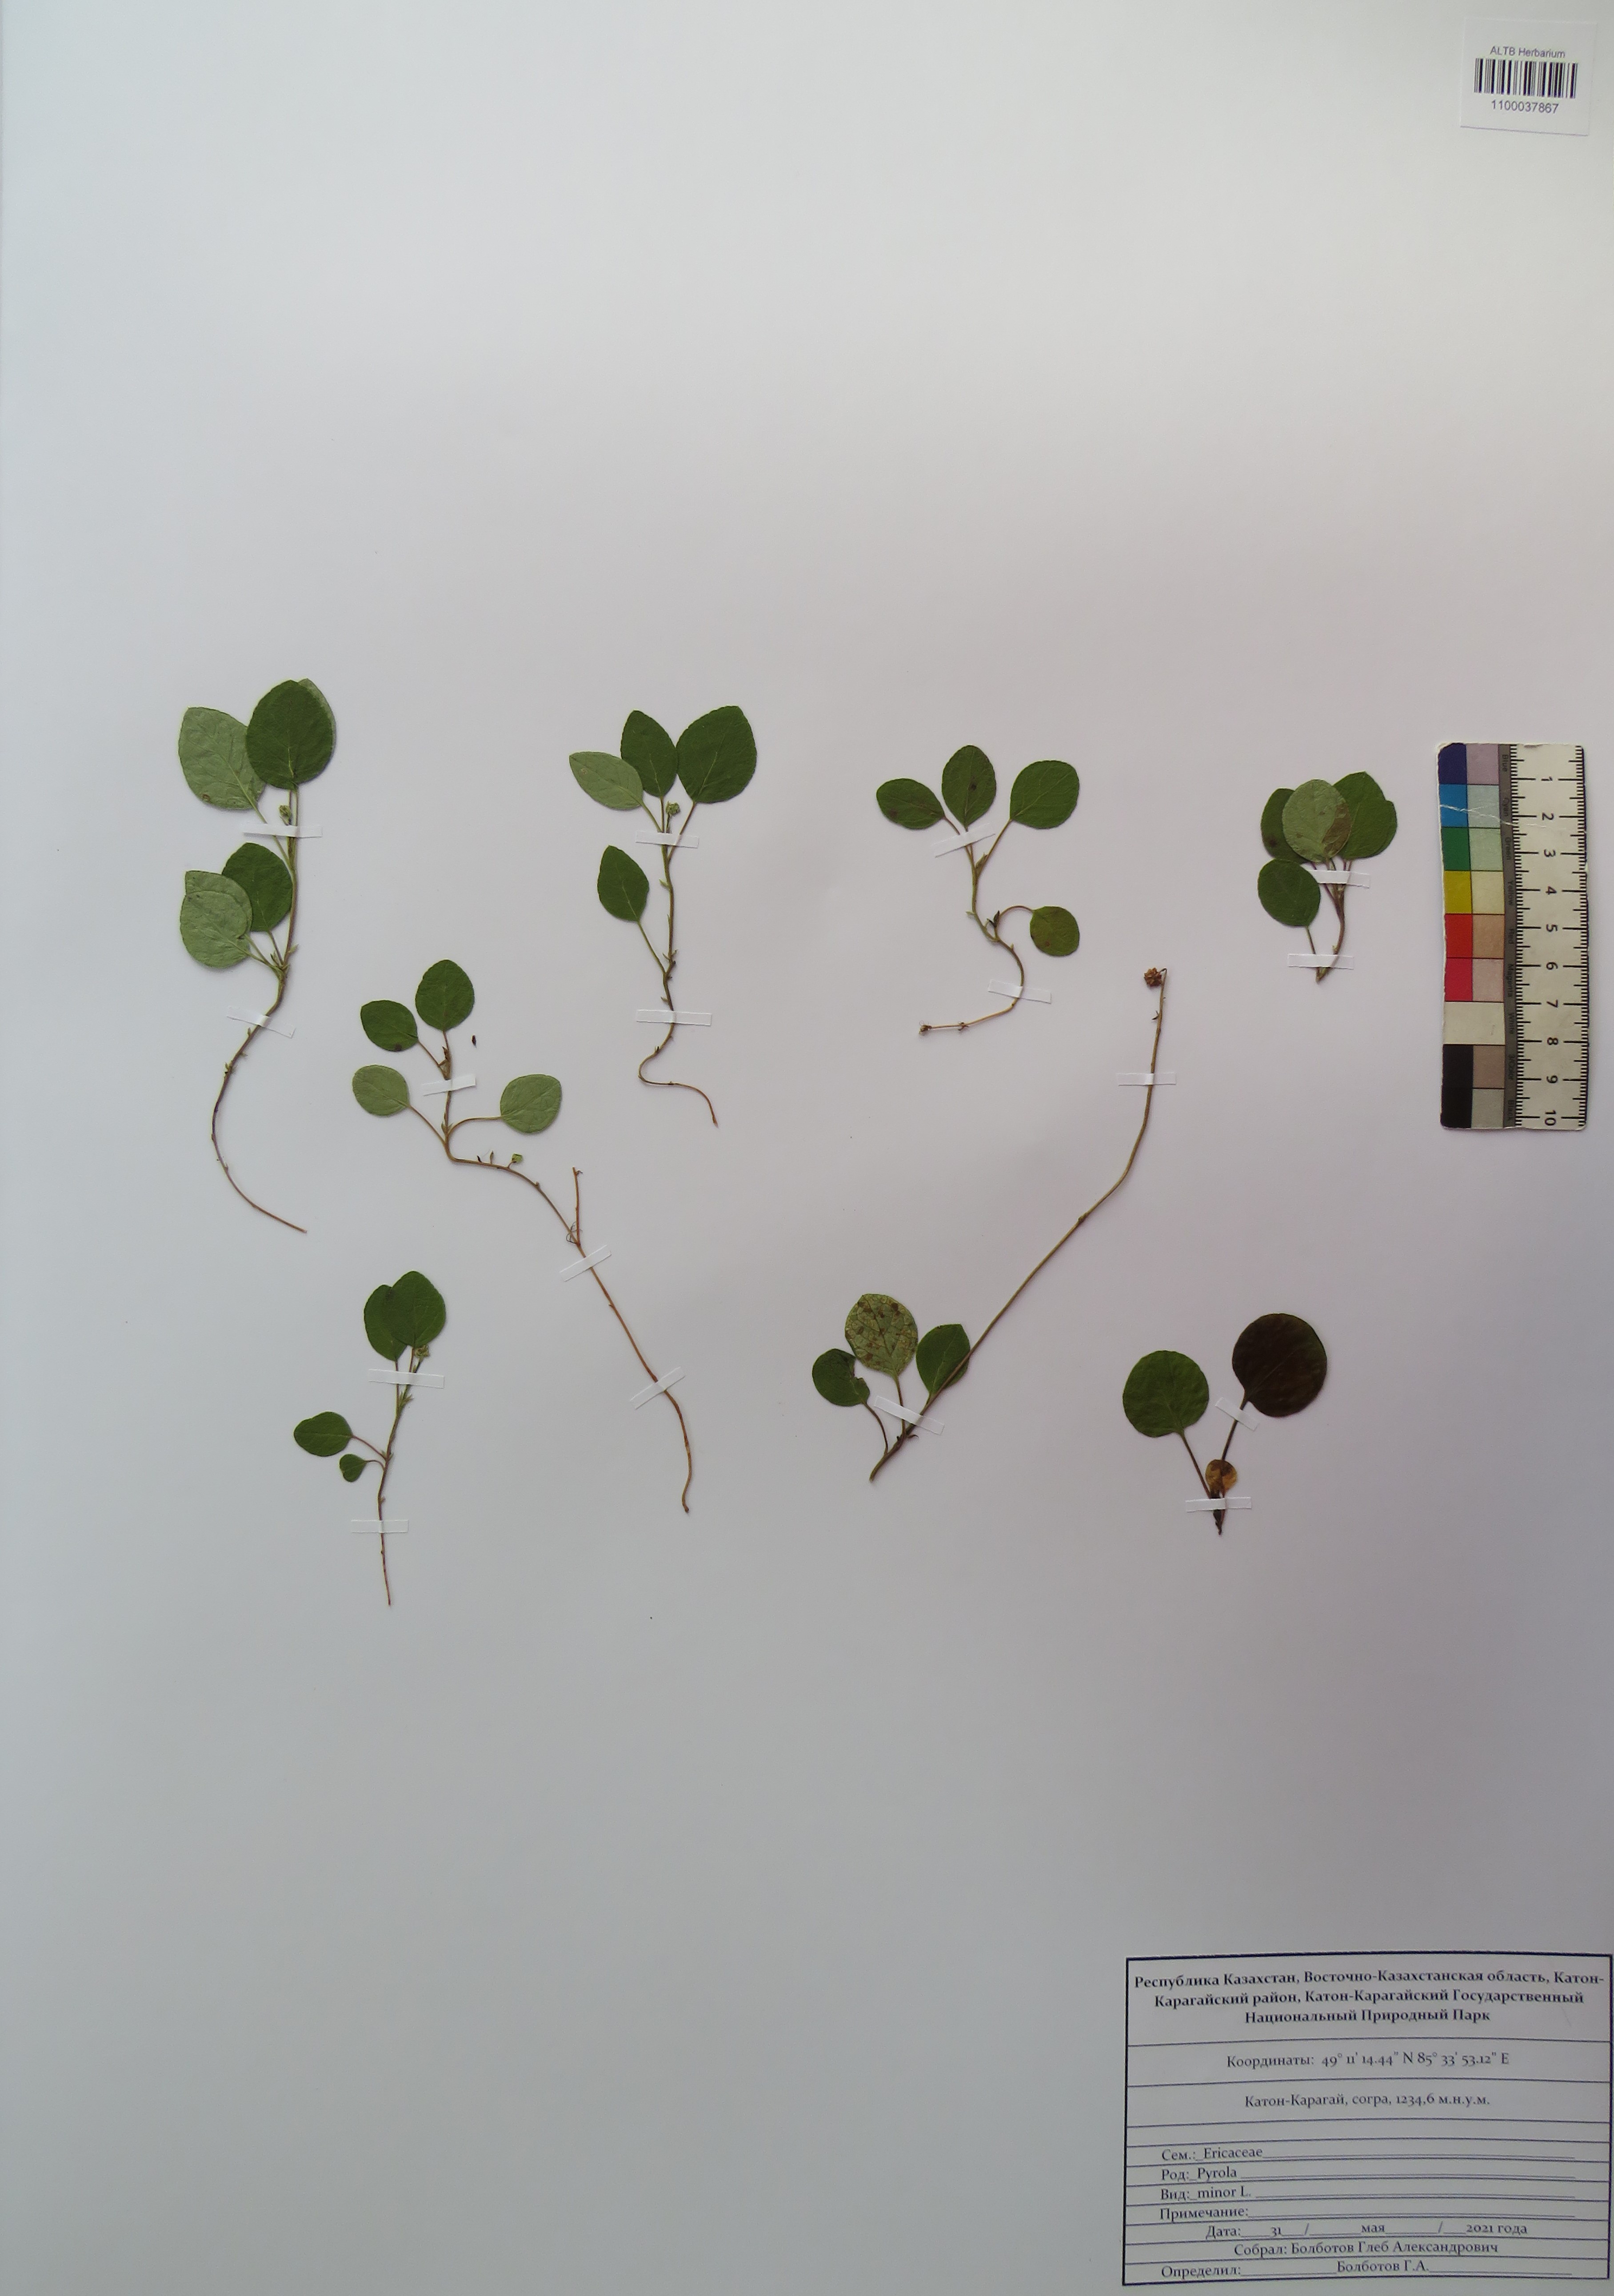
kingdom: Plantae
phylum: Tracheophyta
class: Magnoliopsida
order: Ericales
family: Ericaceae
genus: Pyrola
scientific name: Pyrola minor
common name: Common wintergreen
